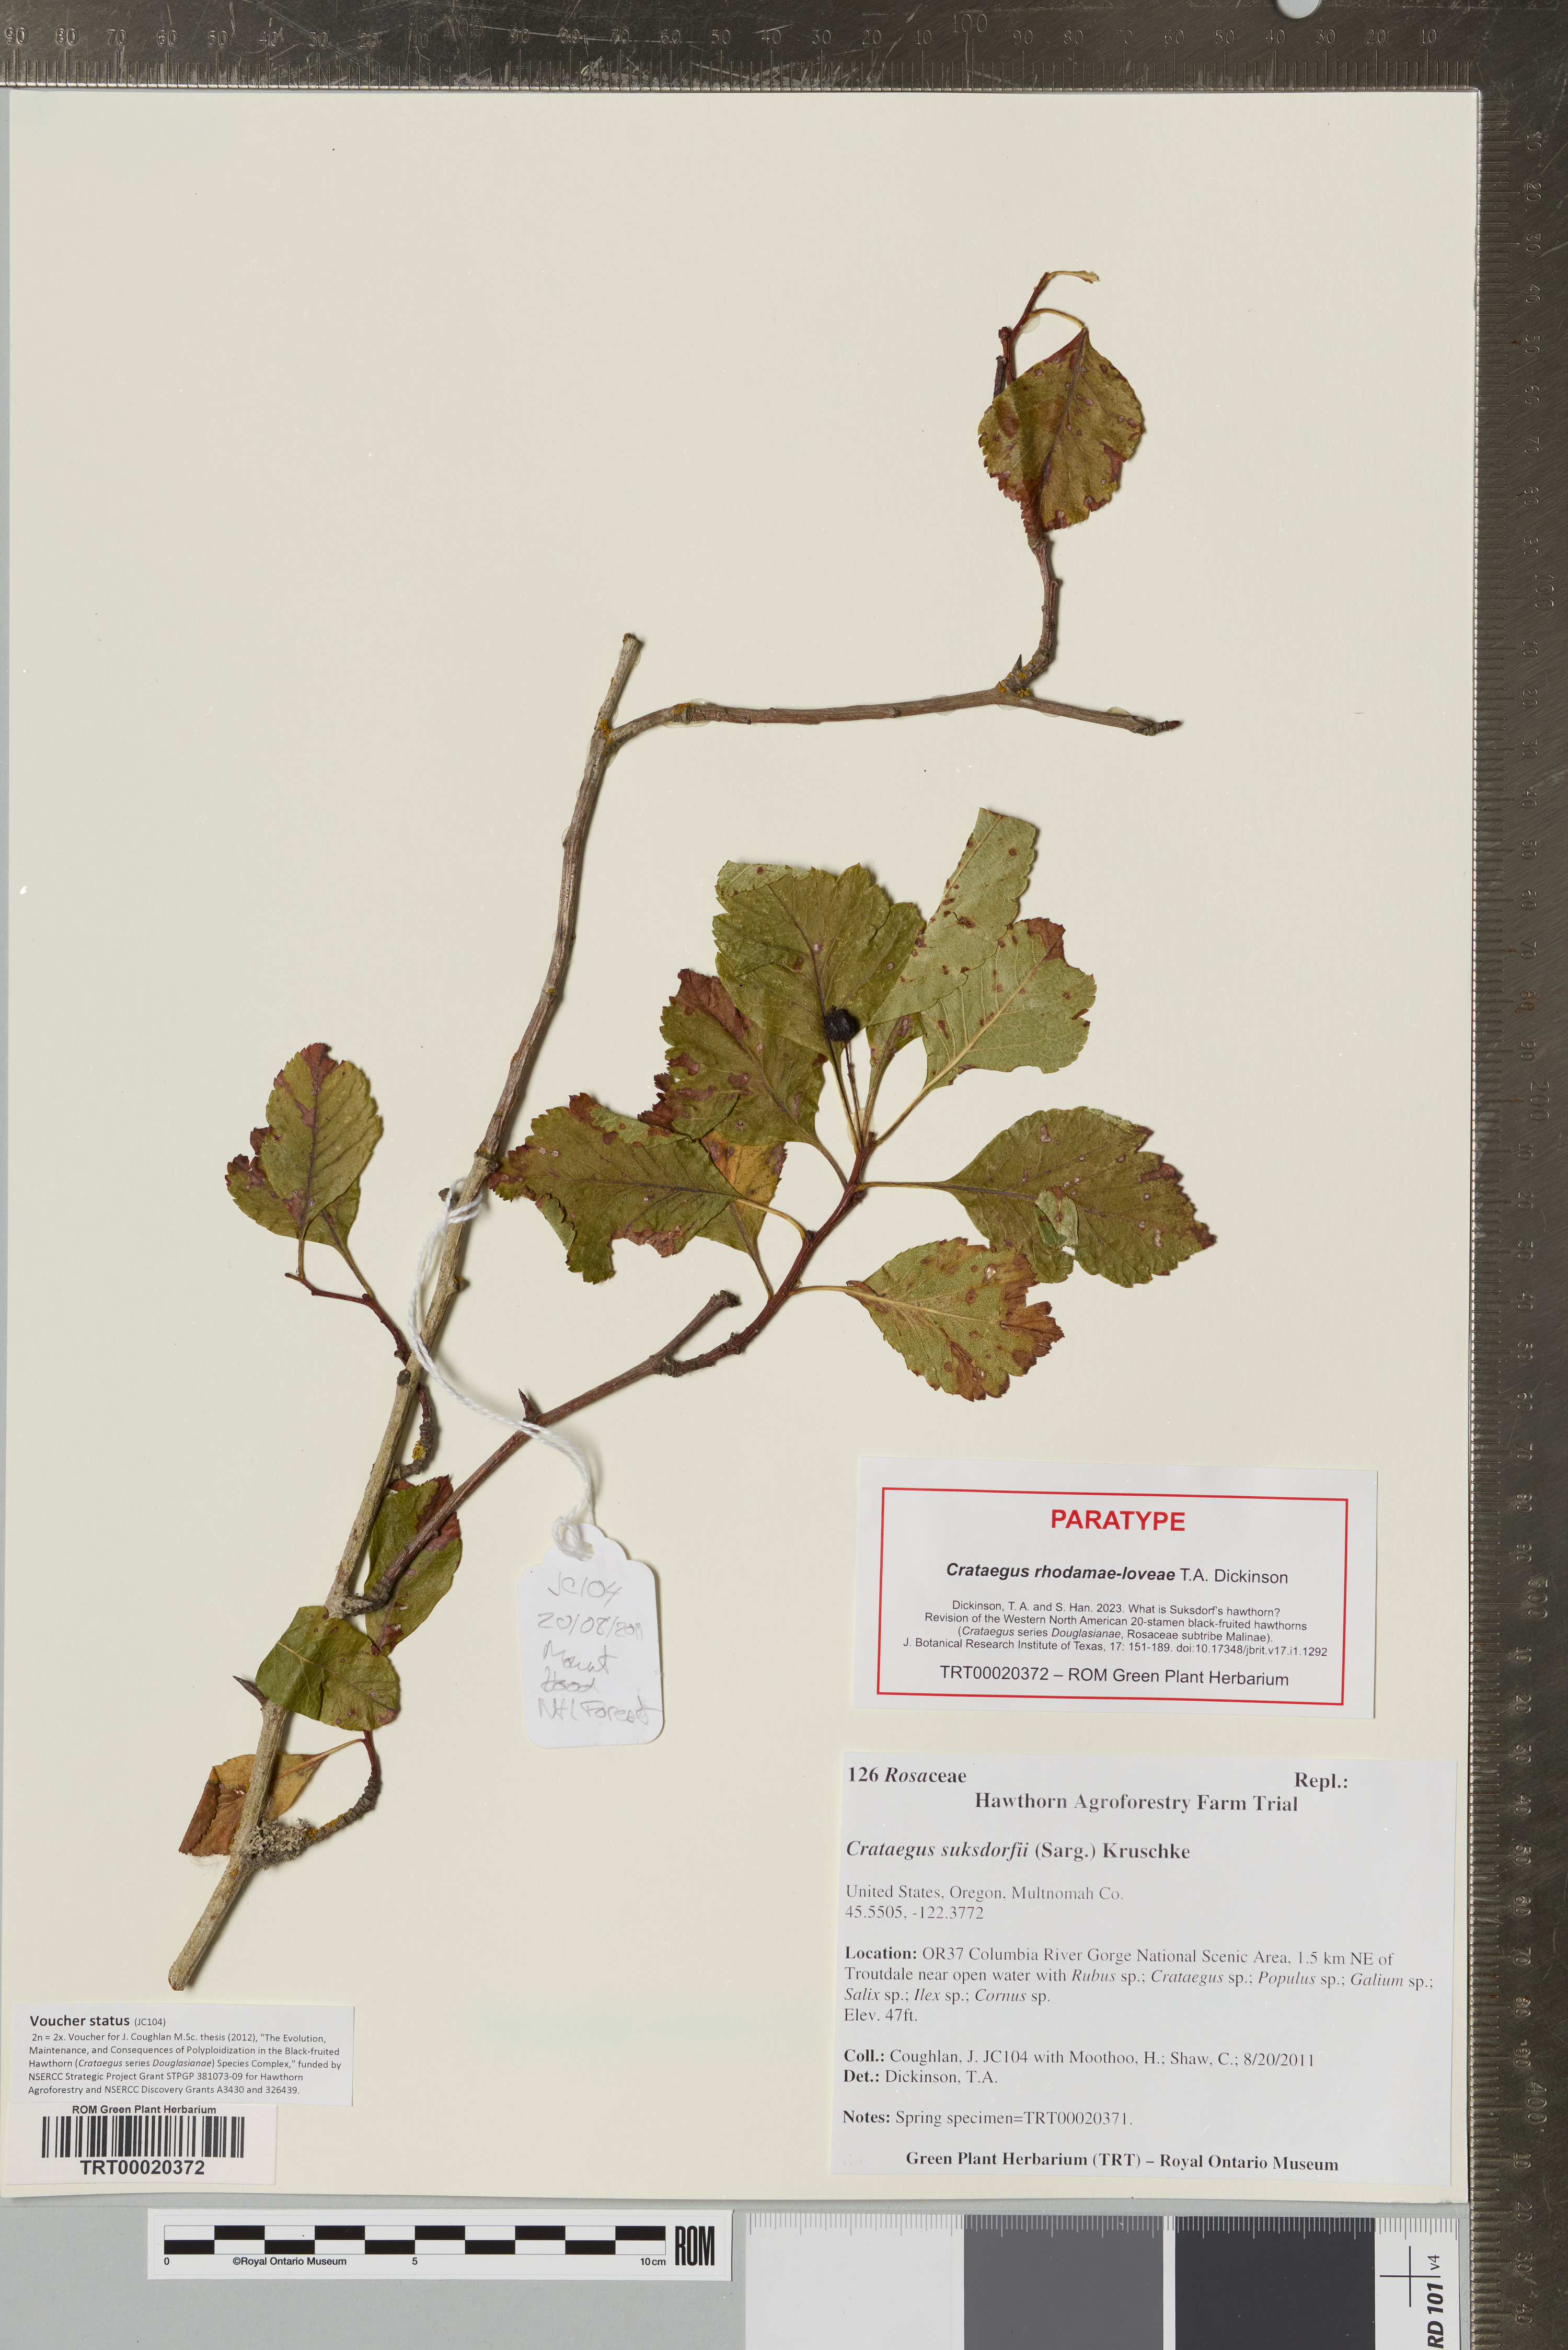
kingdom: Plantae
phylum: Tracheophyta
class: Magnoliopsida
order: Rosales
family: Rosaceae
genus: Crataegus
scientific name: Crataegus gaylussacia
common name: Huckleberry hawthorn
